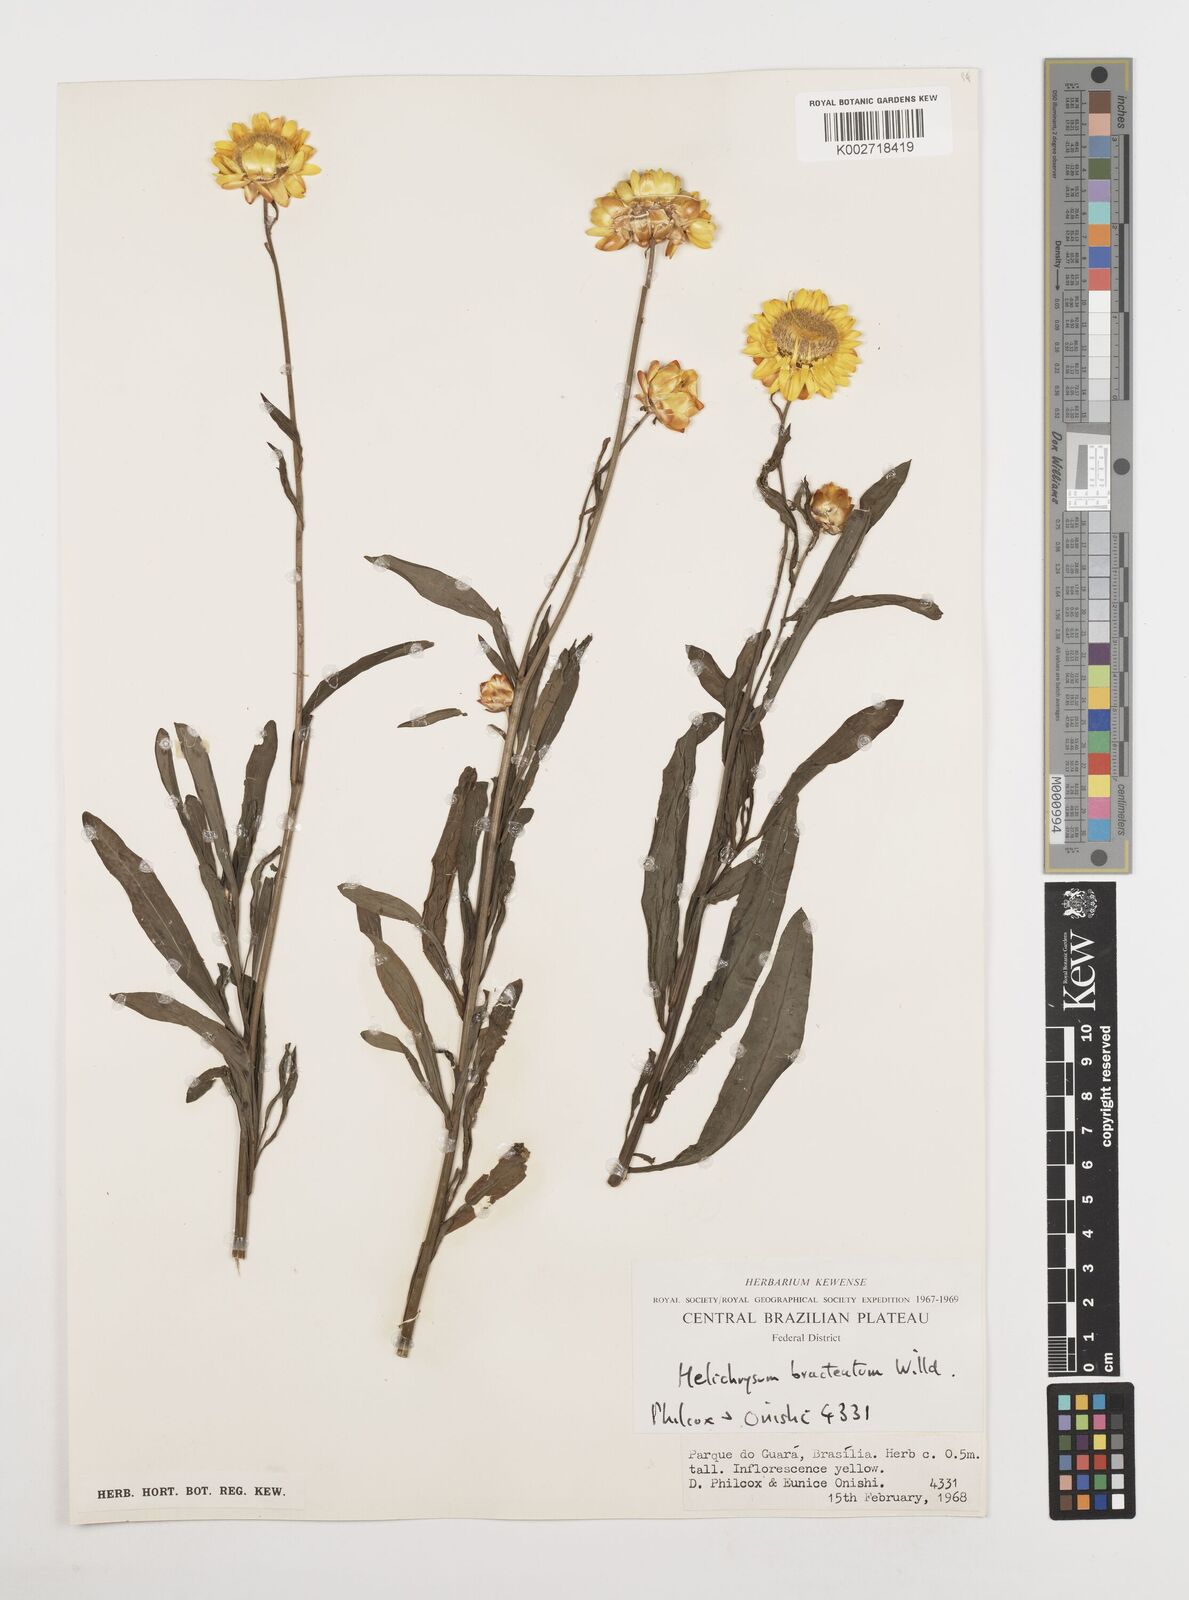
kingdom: Plantae
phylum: Tracheophyta
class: Magnoliopsida
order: Asterales
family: Asteraceae
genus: Xerochrysum
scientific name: Xerochrysum bracteatum
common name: Bracted strawflower
